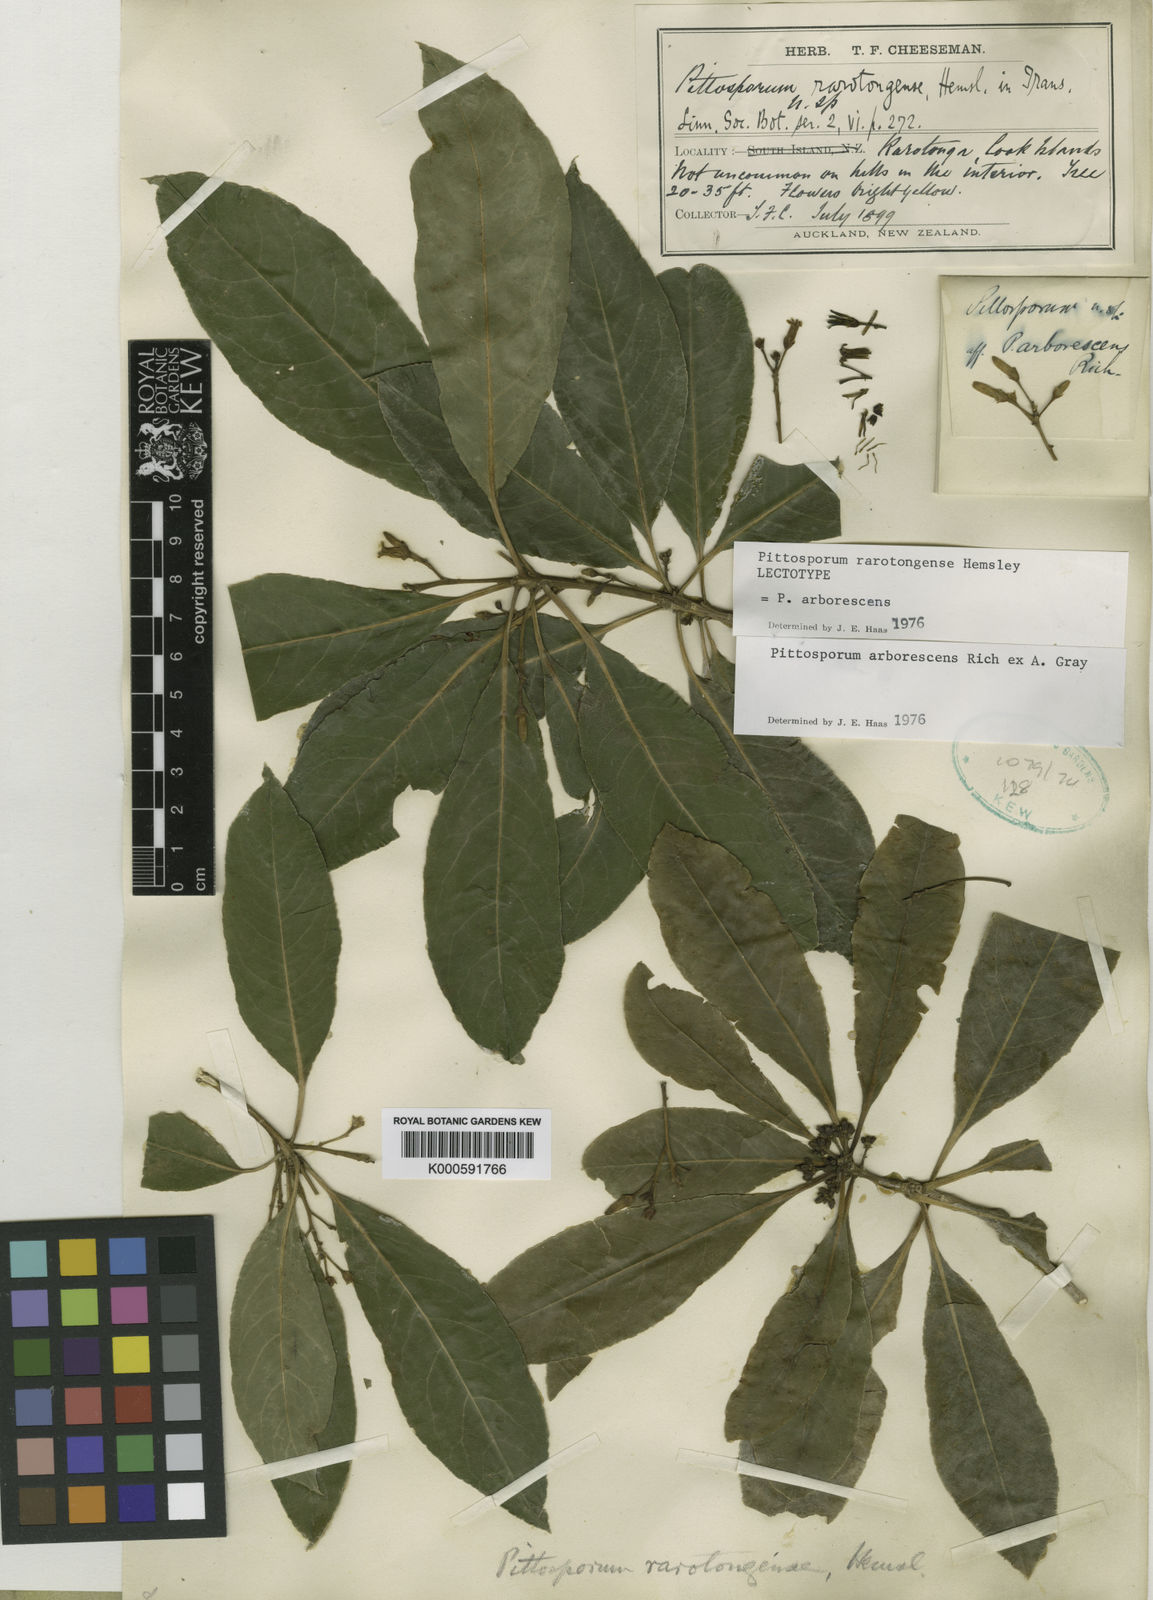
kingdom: Plantae
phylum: Tracheophyta
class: Magnoliopsida
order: Apiales
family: Pittosporaceae
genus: Pittosporum
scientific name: Pittosporum rarotongense
